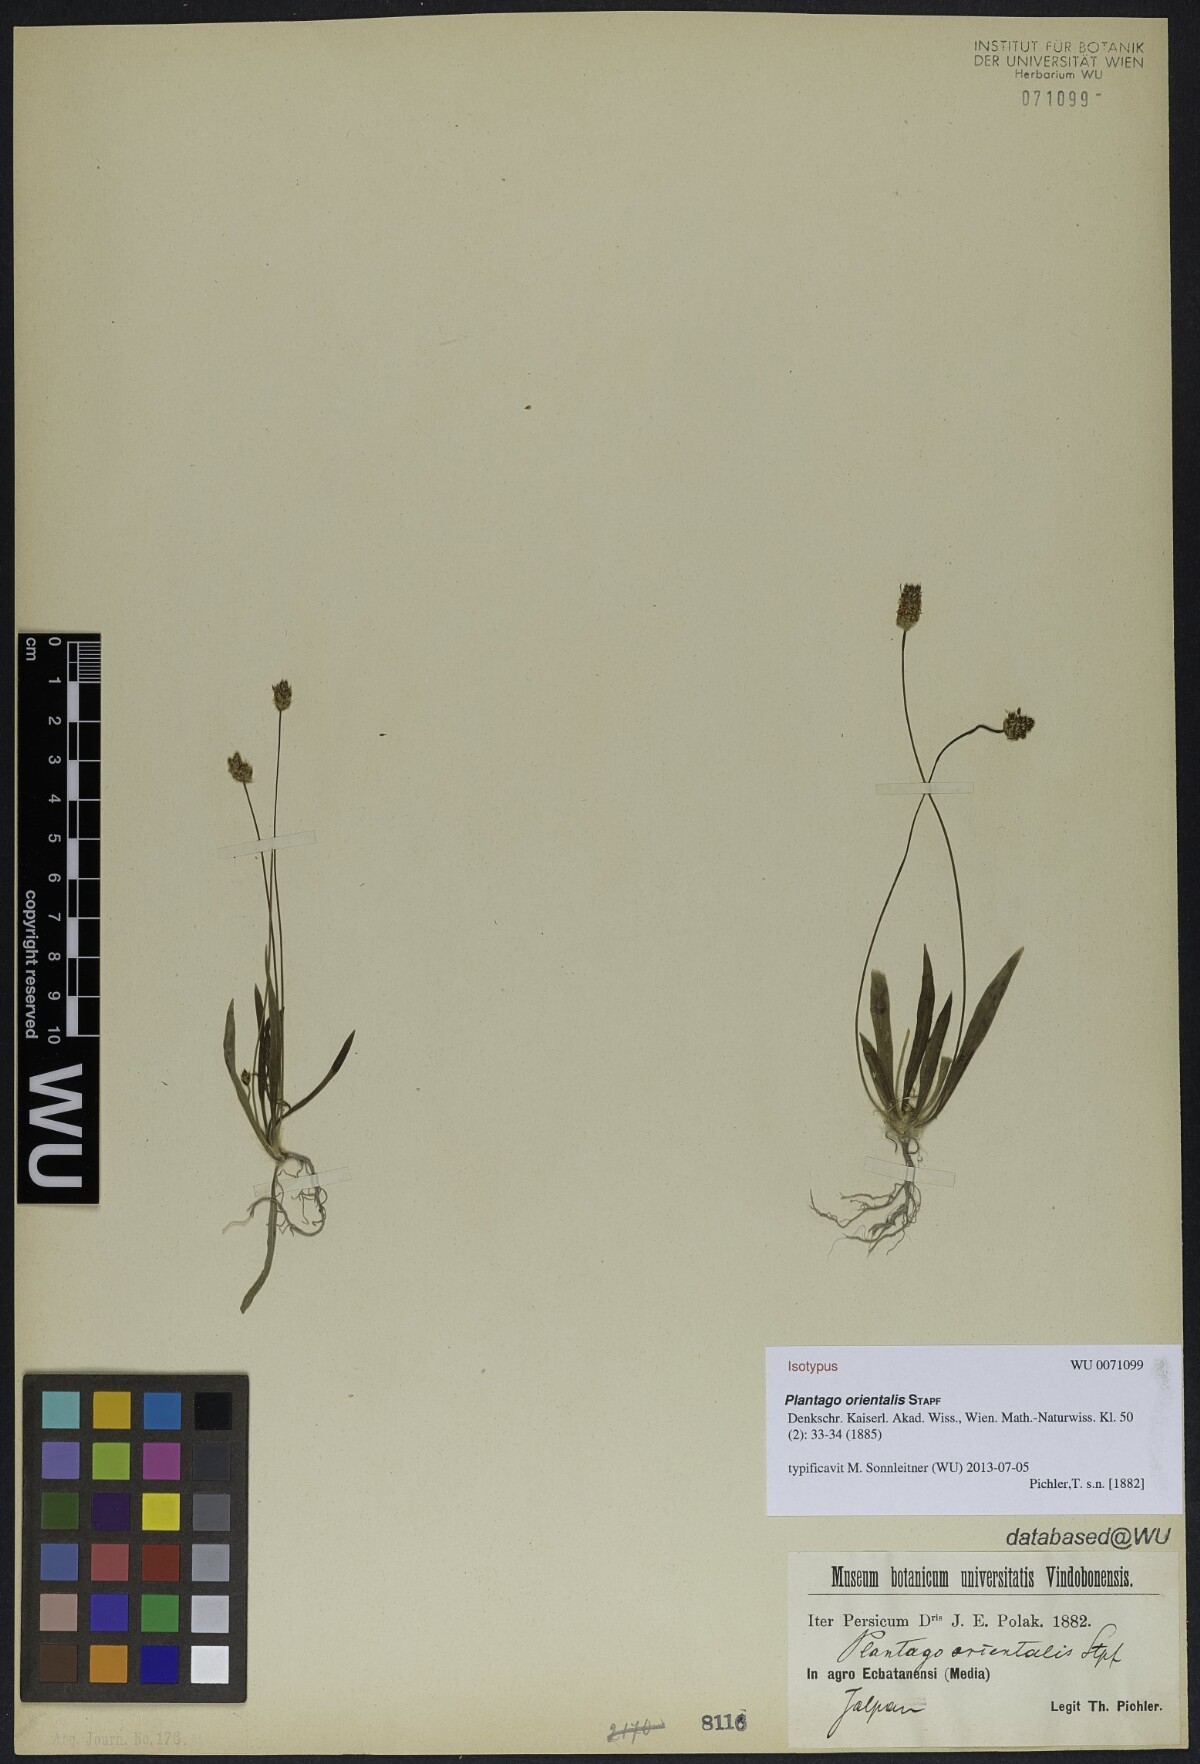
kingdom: Plantae
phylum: Tracheophyta
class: Magnoliopsida
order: Lamiales
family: Plantaginaceae
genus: Plantago
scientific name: Plantago lanceolata
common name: Ribwort plantain
